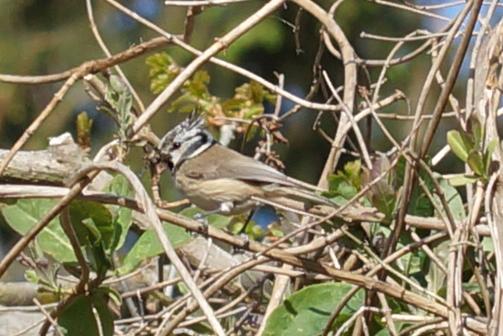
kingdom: Animalia
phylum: Chordata
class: Aves
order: Passeriformes
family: Paridae
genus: Lophophanes
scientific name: Lophophanes cristatus
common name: Topmejse
